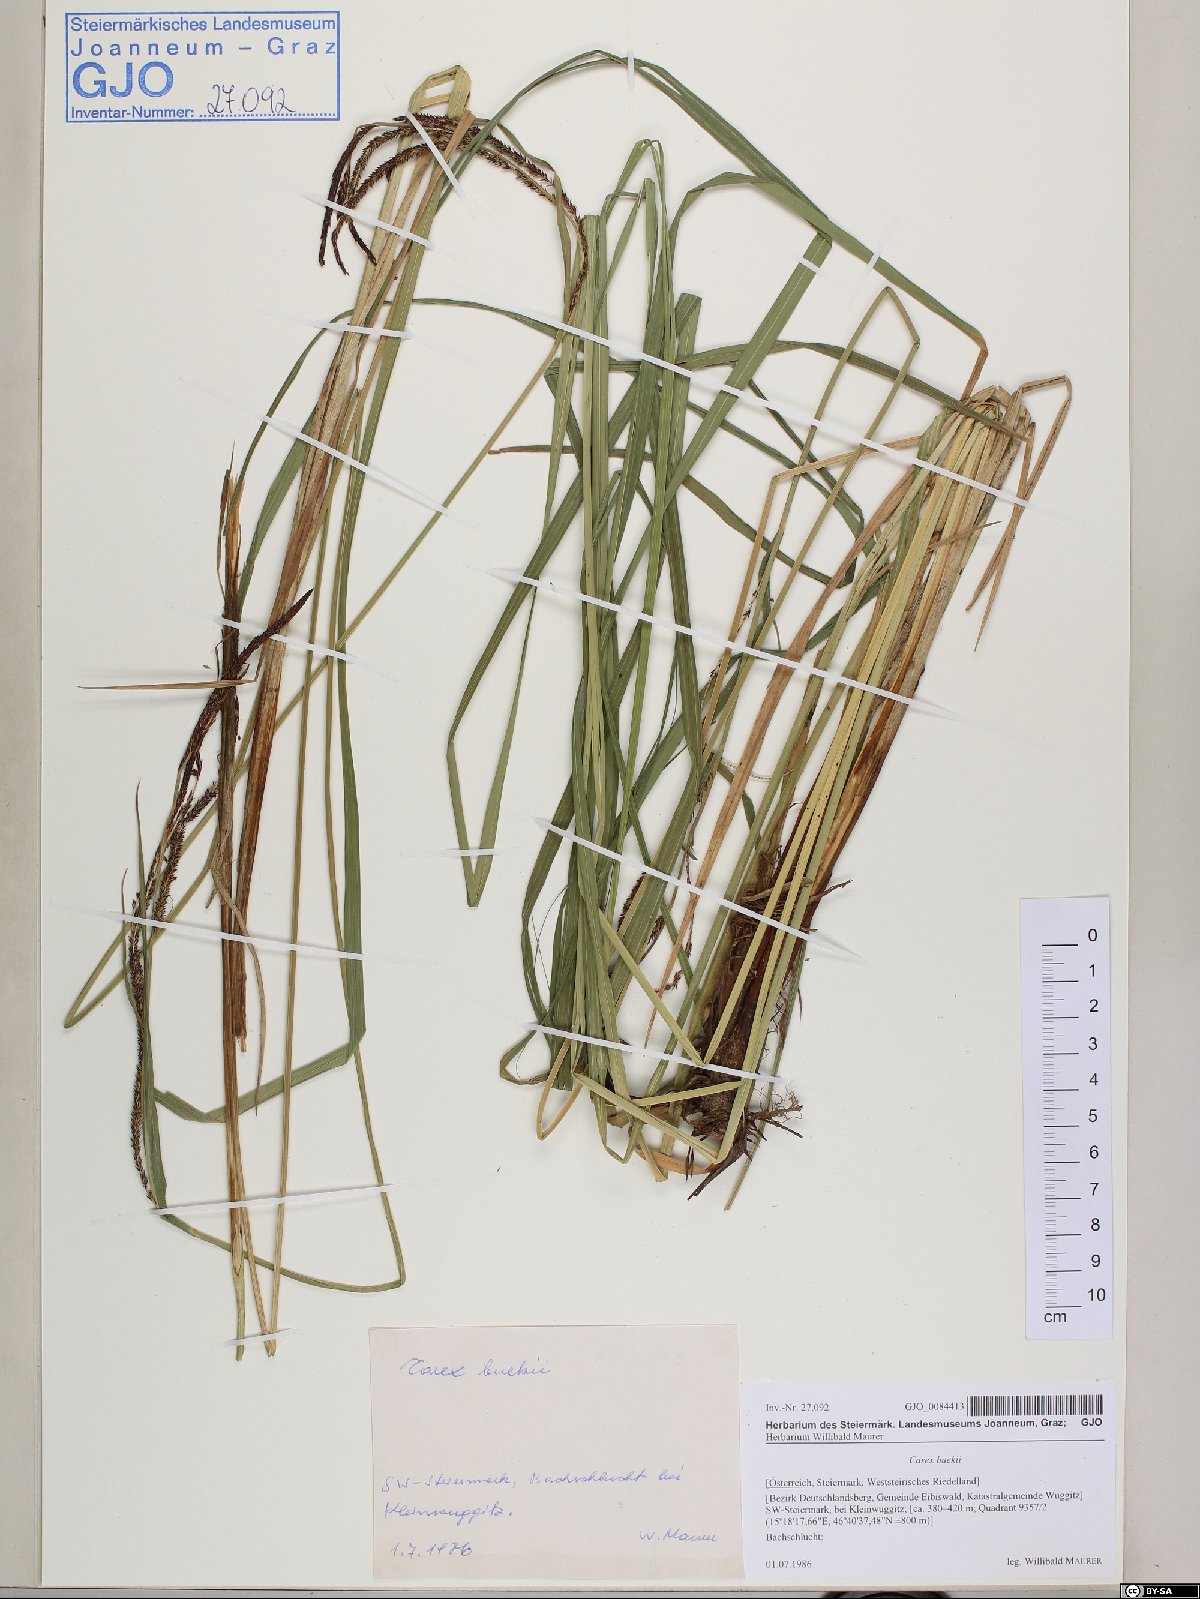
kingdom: Plantae
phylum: Tracheophyta
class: Liliopsida
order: Poales
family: Cyperaceae
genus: Carex
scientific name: Carex buekii
